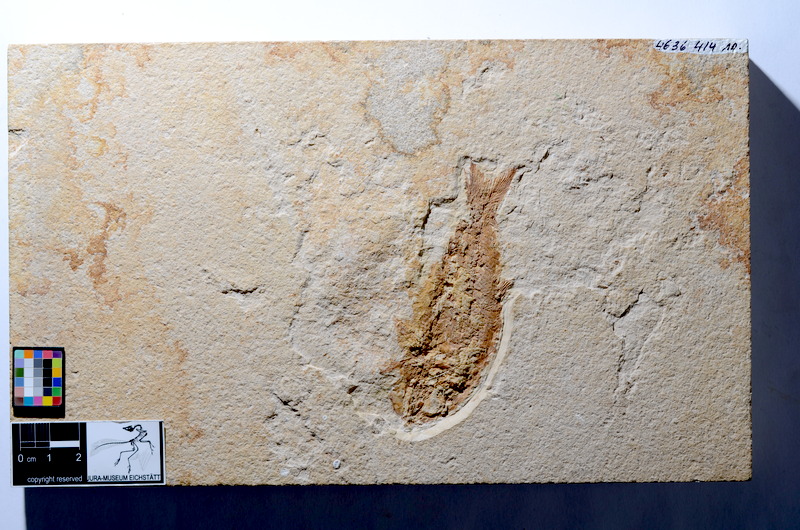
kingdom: Animalia
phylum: Chordata
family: Ophiopsiellidae
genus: Furo
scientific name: Furo latimanus
